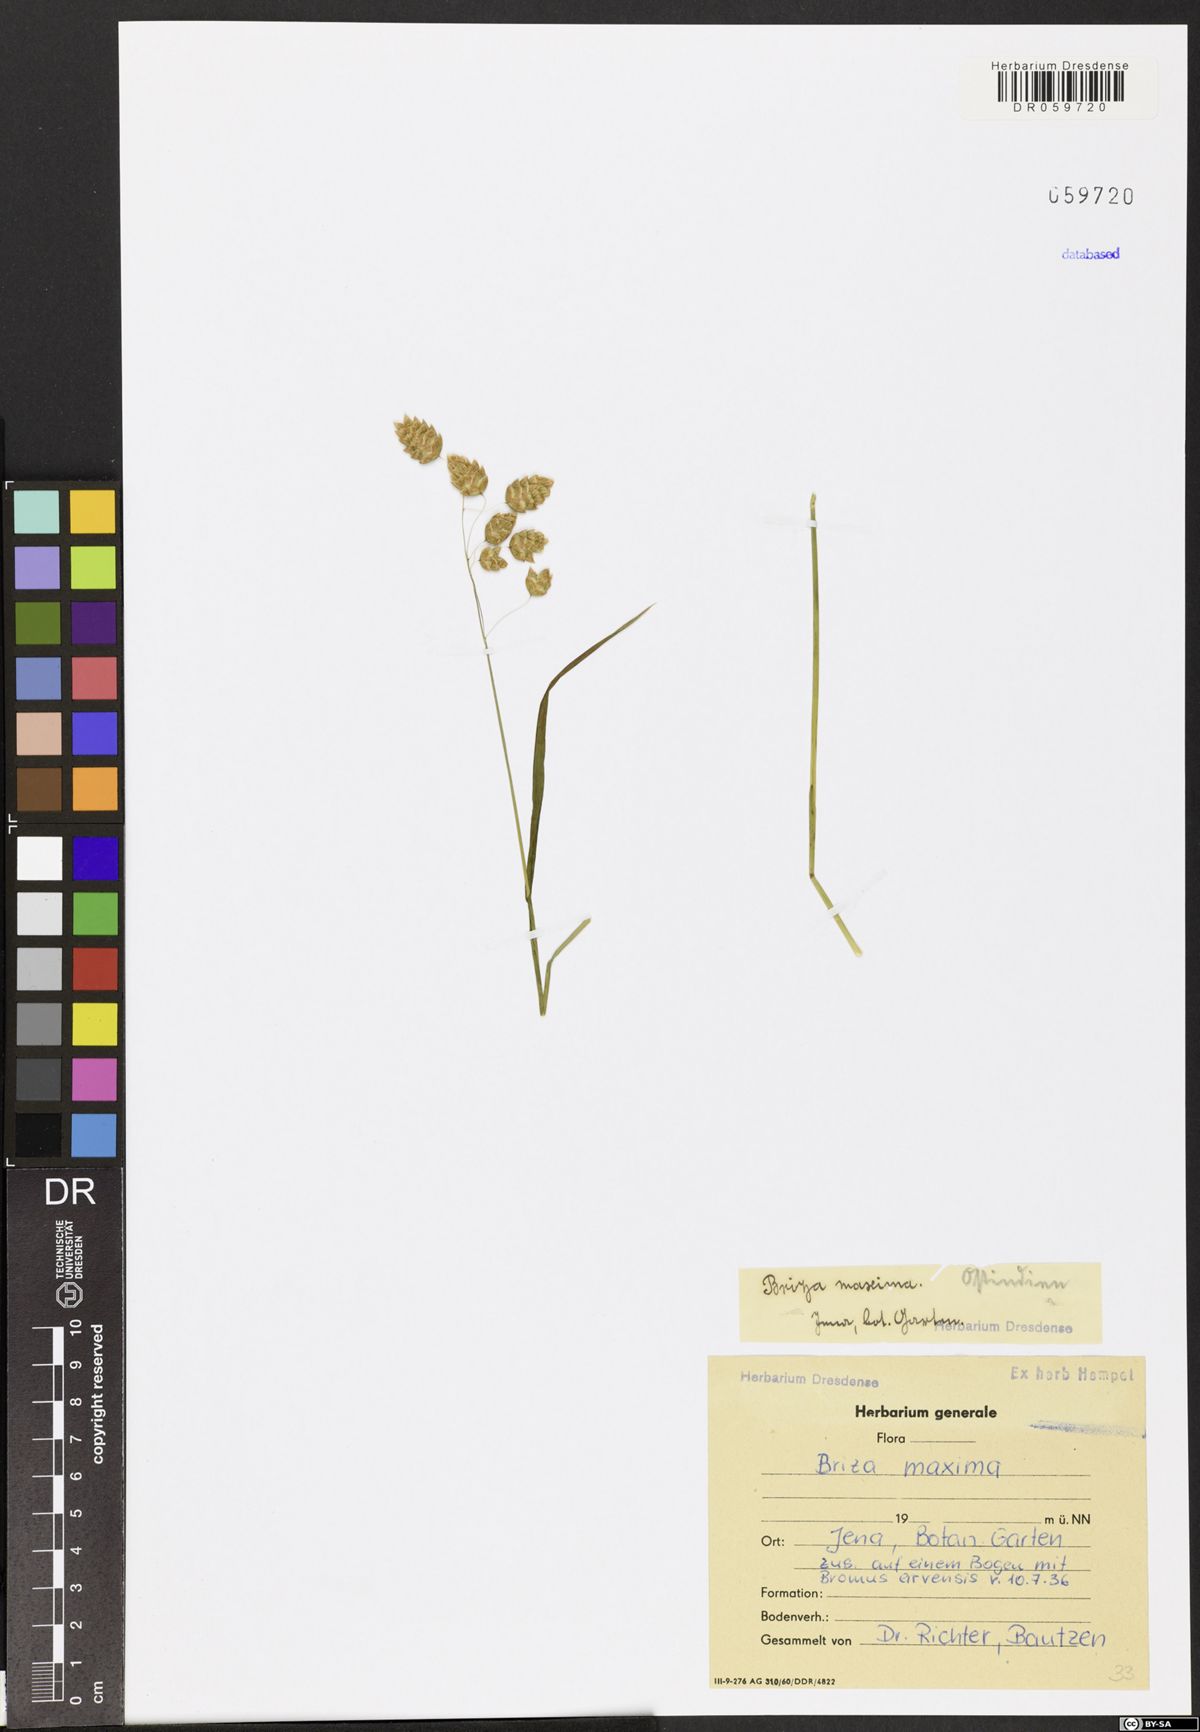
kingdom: Plantae
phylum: Tracheophyta
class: Liliopsida
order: Poales
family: Poaceae
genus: Briza
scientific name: Briza maxima
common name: Big quakinggrass
